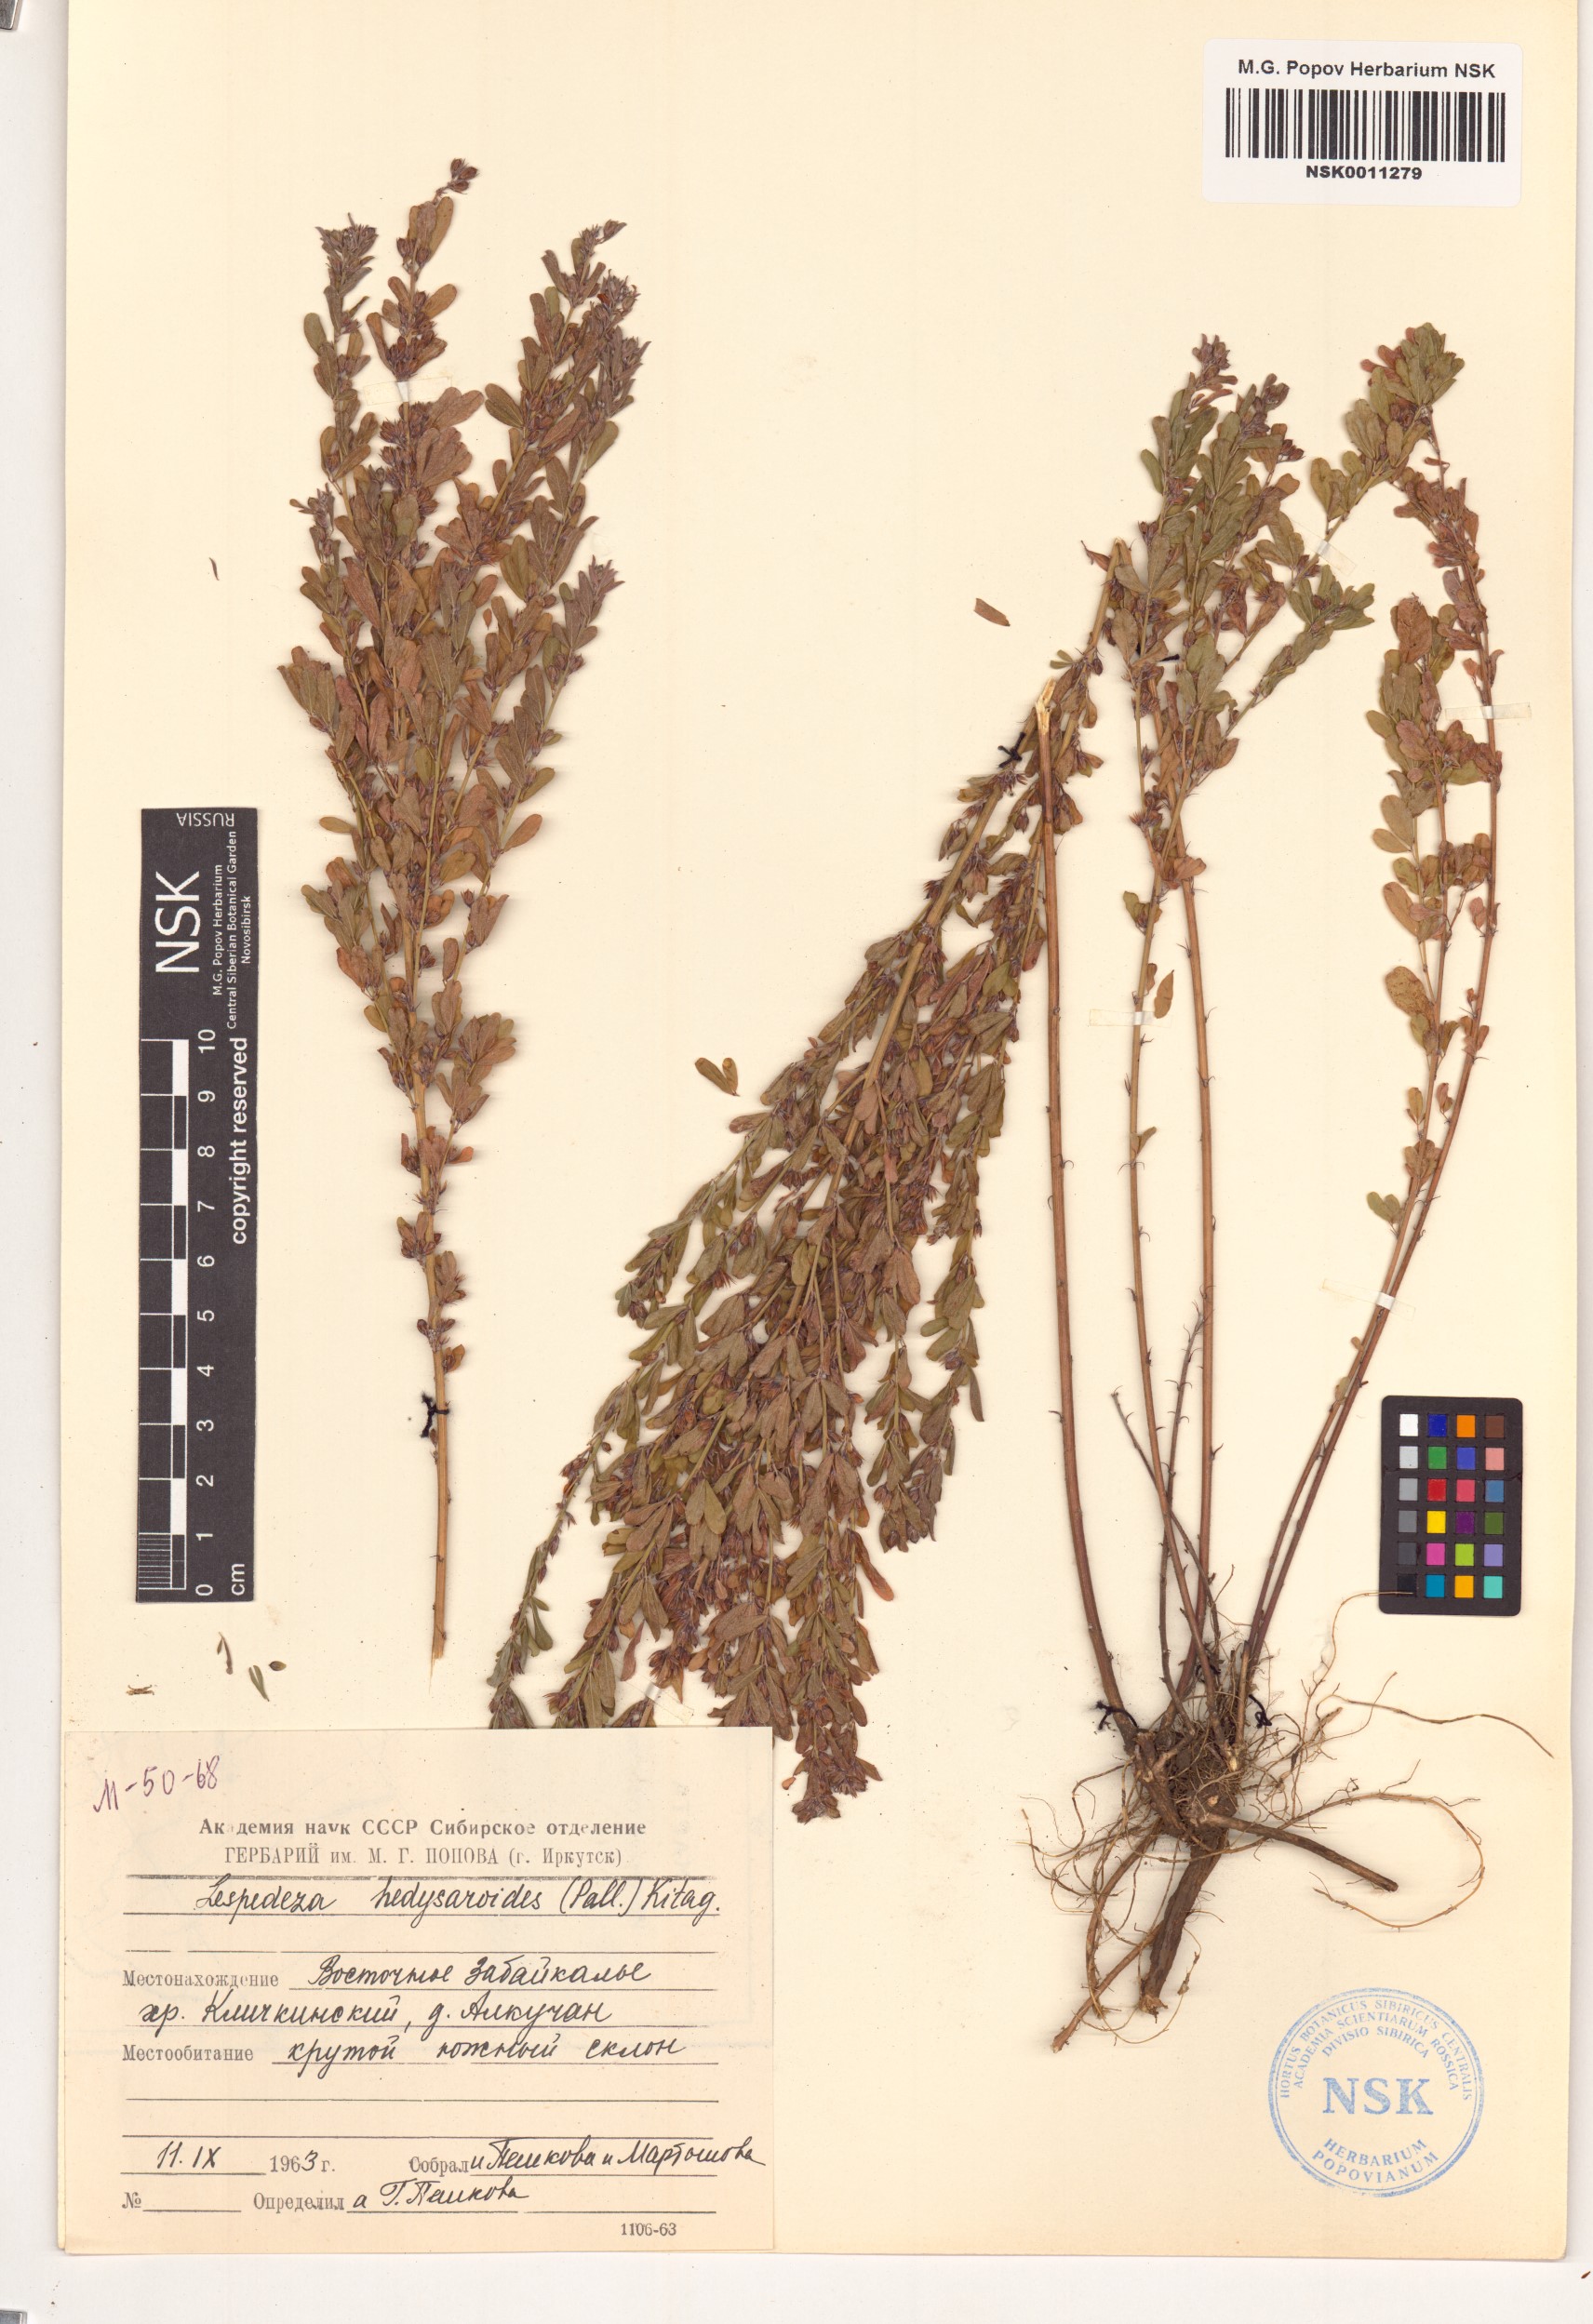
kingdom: Plantae
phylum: Tracheophyta
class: Magnoliopsida
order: Fabales
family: Fabaceae
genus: Lespedeza
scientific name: Lespedeza juncea
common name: Siberian lespedeza
